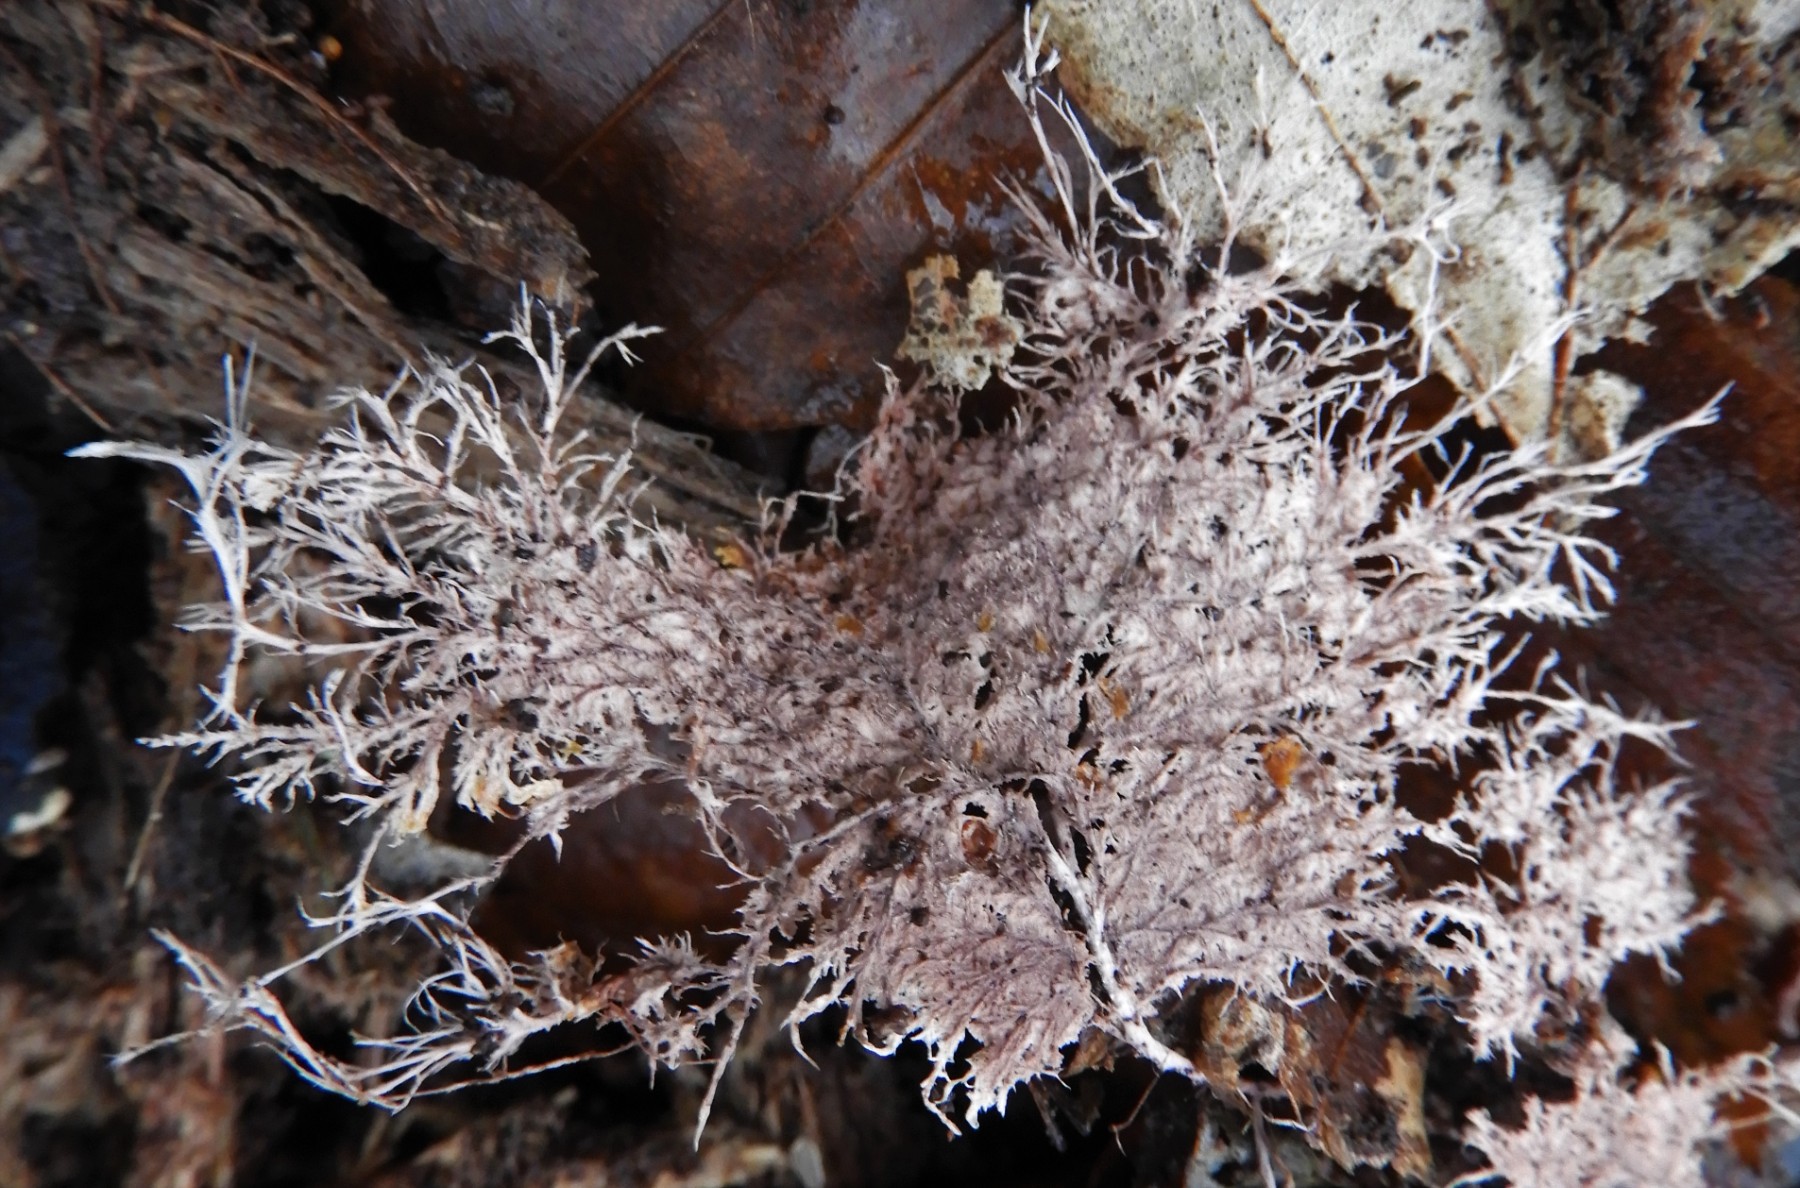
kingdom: Fungi
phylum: Basidiomycota
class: Agaricomycetes
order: Polyporales
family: Steccherinaceae
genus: Steccherinum
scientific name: Steccherinum fimbriatum
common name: trådet skønpig
